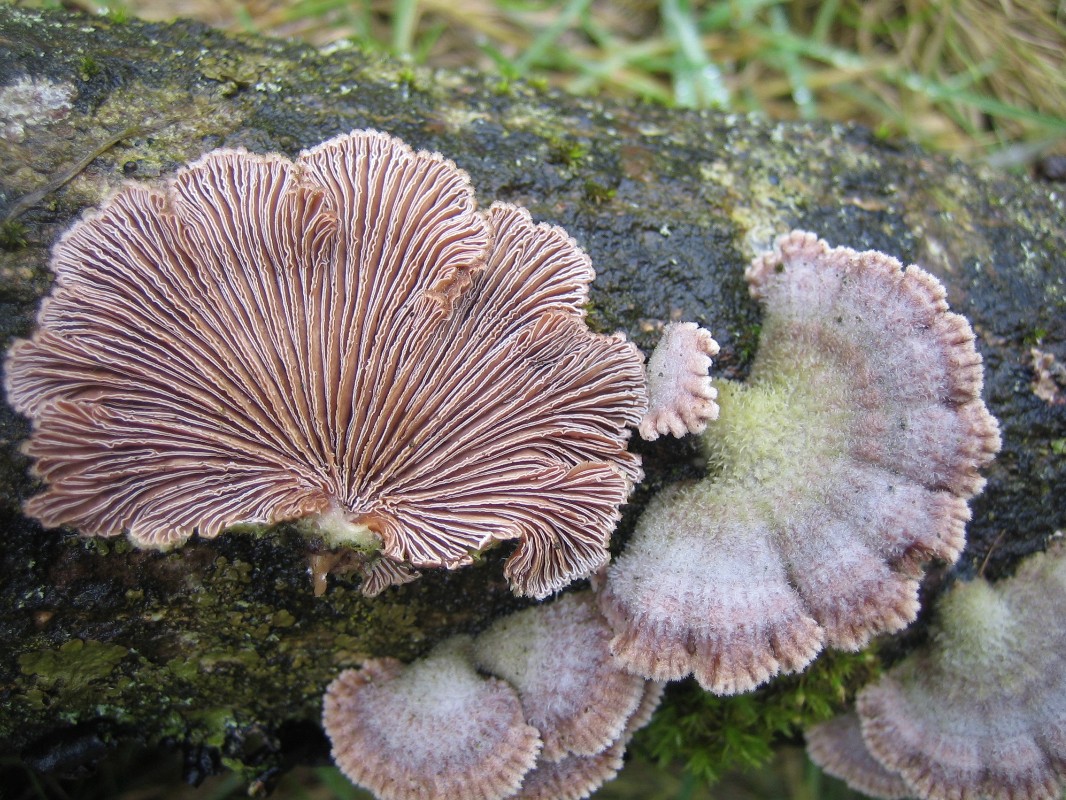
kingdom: Fungi
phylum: Basidiomycota
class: Agaricomycetes
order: Agaricales
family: Schizophyllaceae
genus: Schizophyllum
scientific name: Schizophyllum commune
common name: kløvblad
